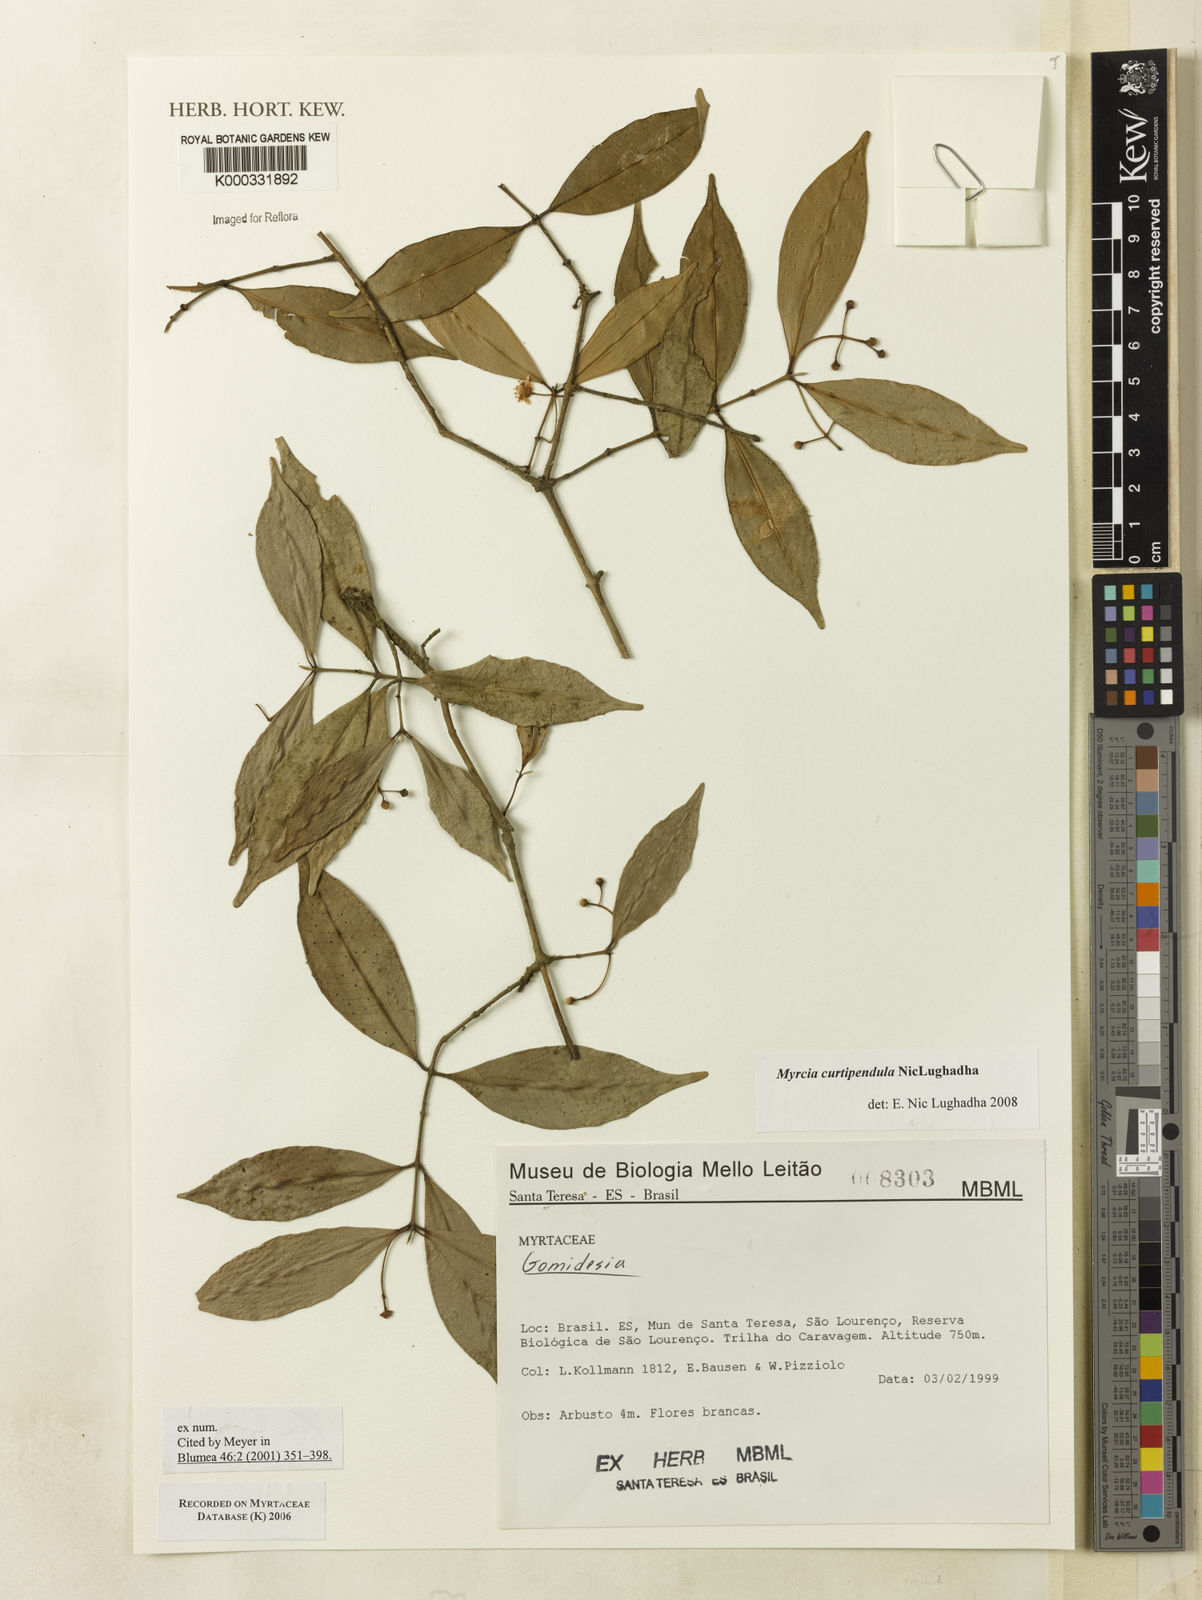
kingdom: Plantae
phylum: Tracheophyta
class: Magnoliopsida
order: Myrtales
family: Myrtaceae
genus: Myrcia
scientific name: Myrcia tijucensis
